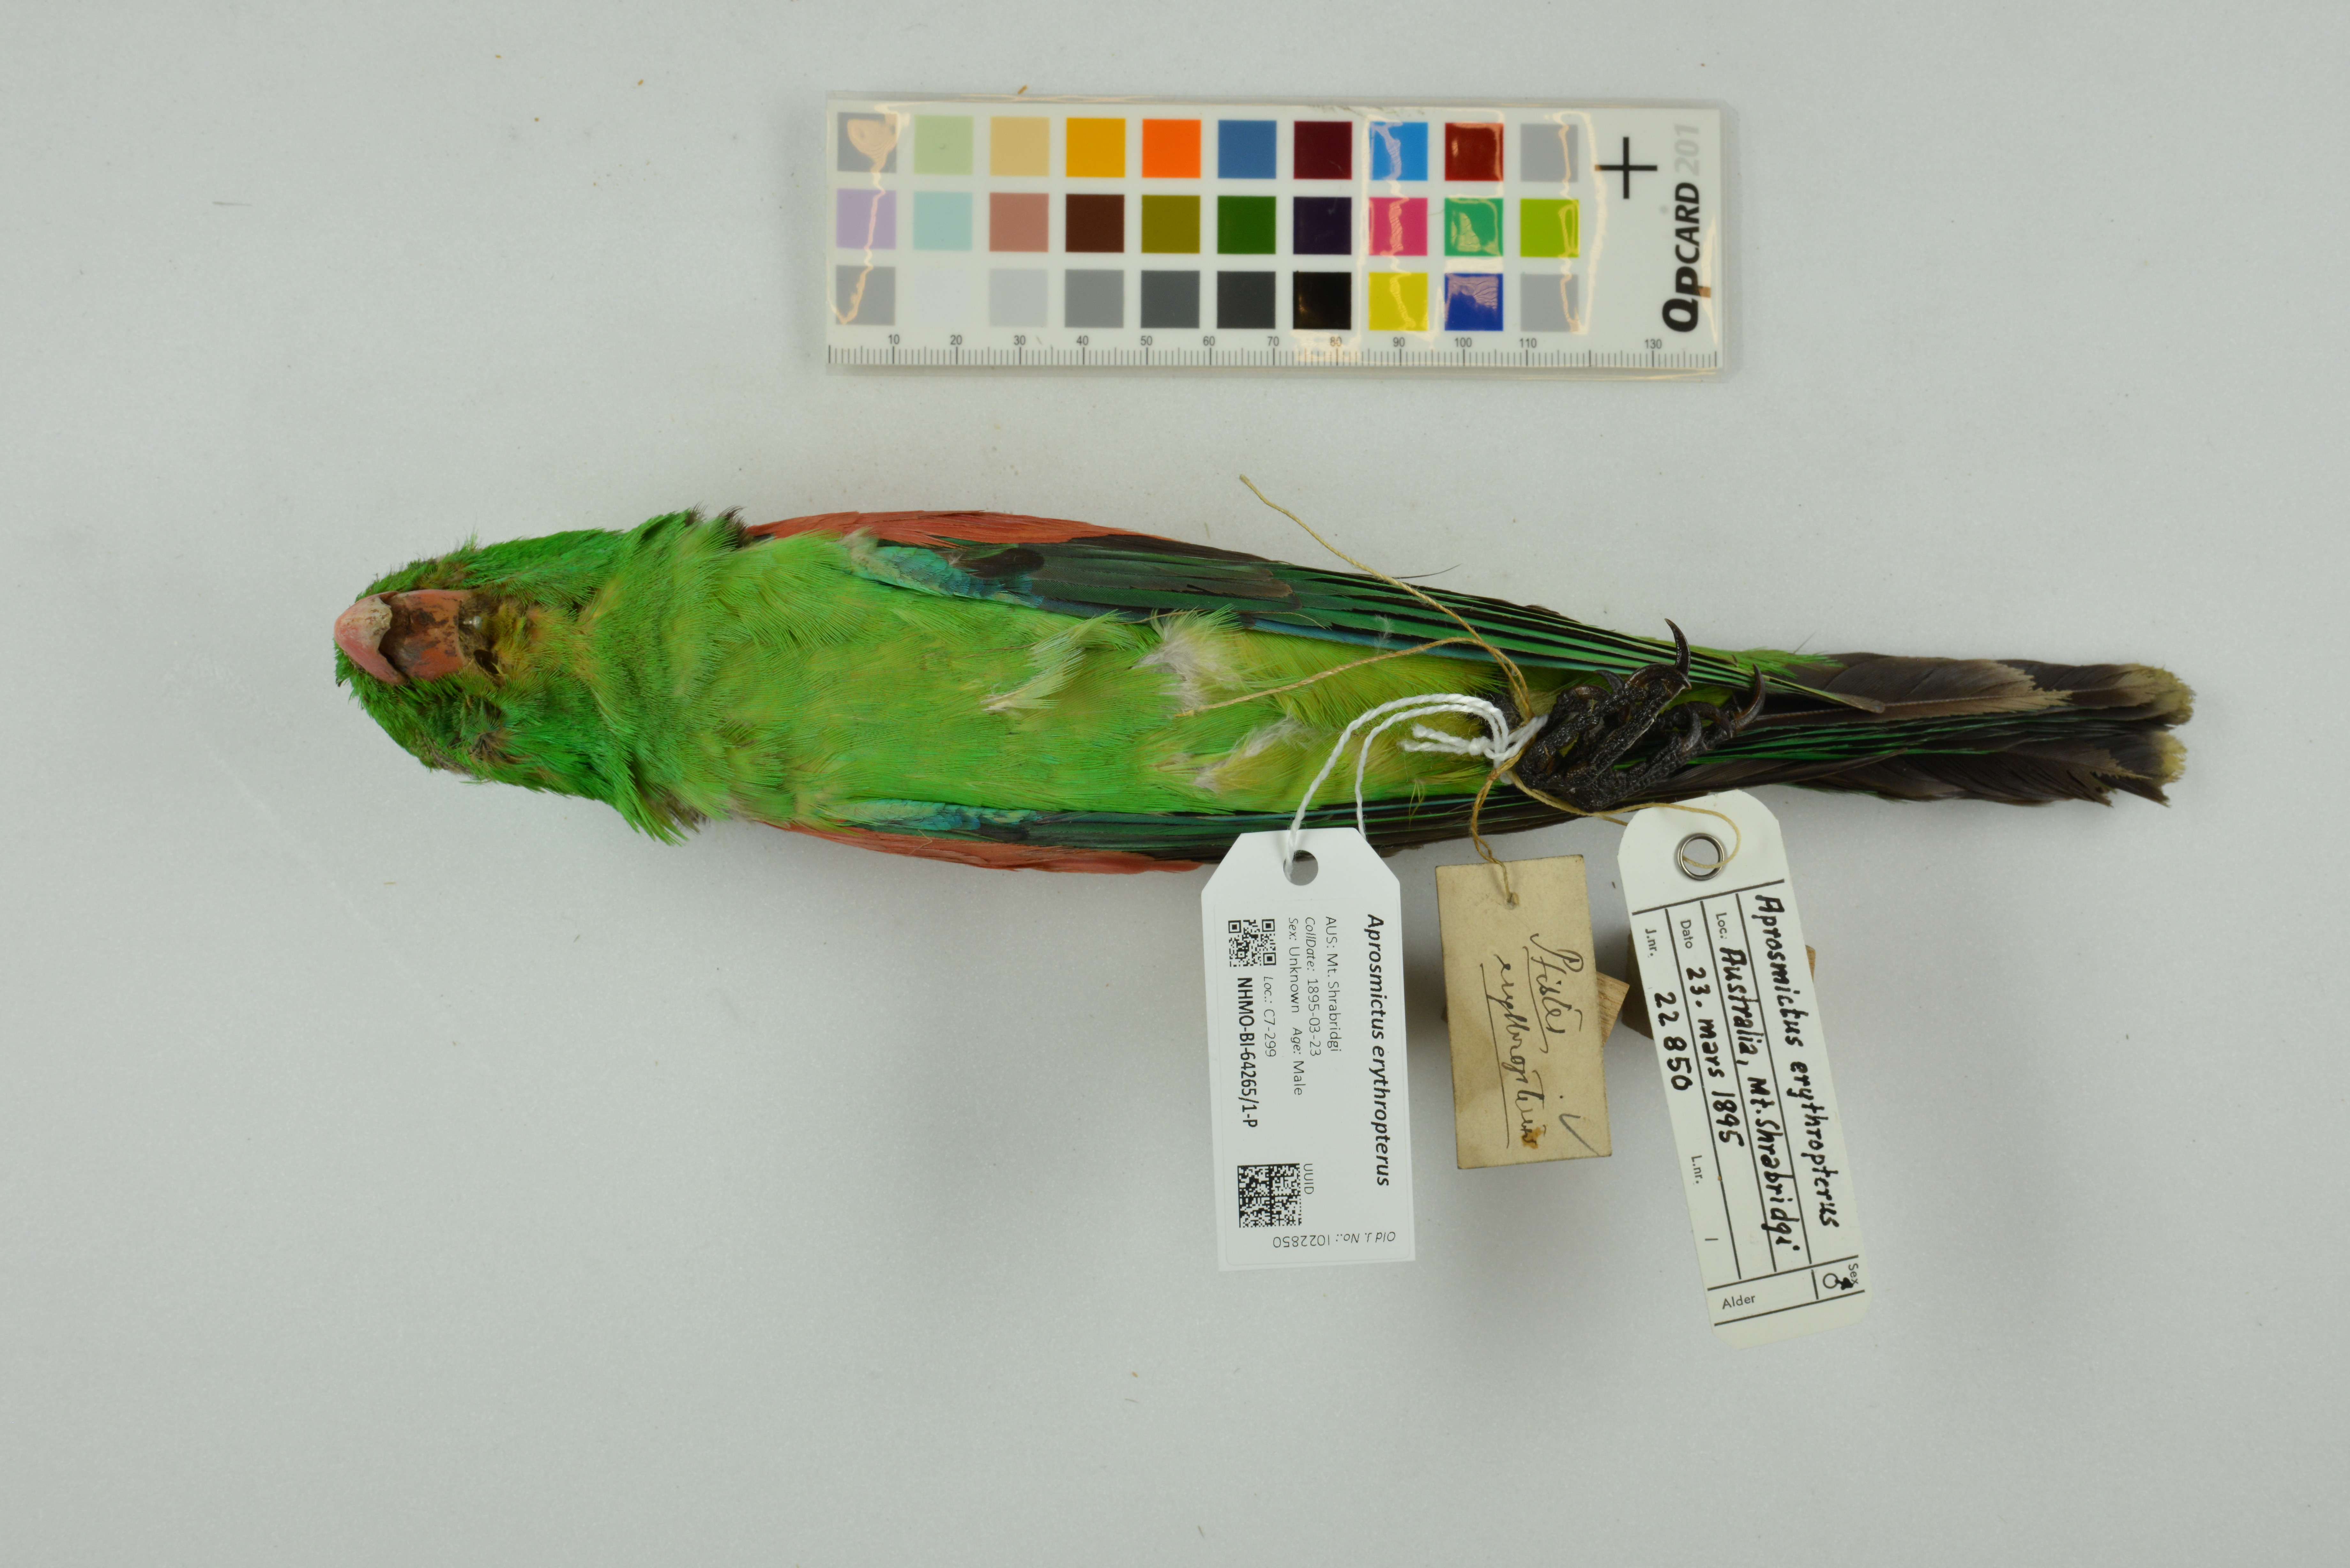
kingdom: Animalia
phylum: Chordata
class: Aves
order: Psittaciformes
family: Psittacidae
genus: Aprosmictus
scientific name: Aprosmictus erythropterus
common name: Red-winged parrot
